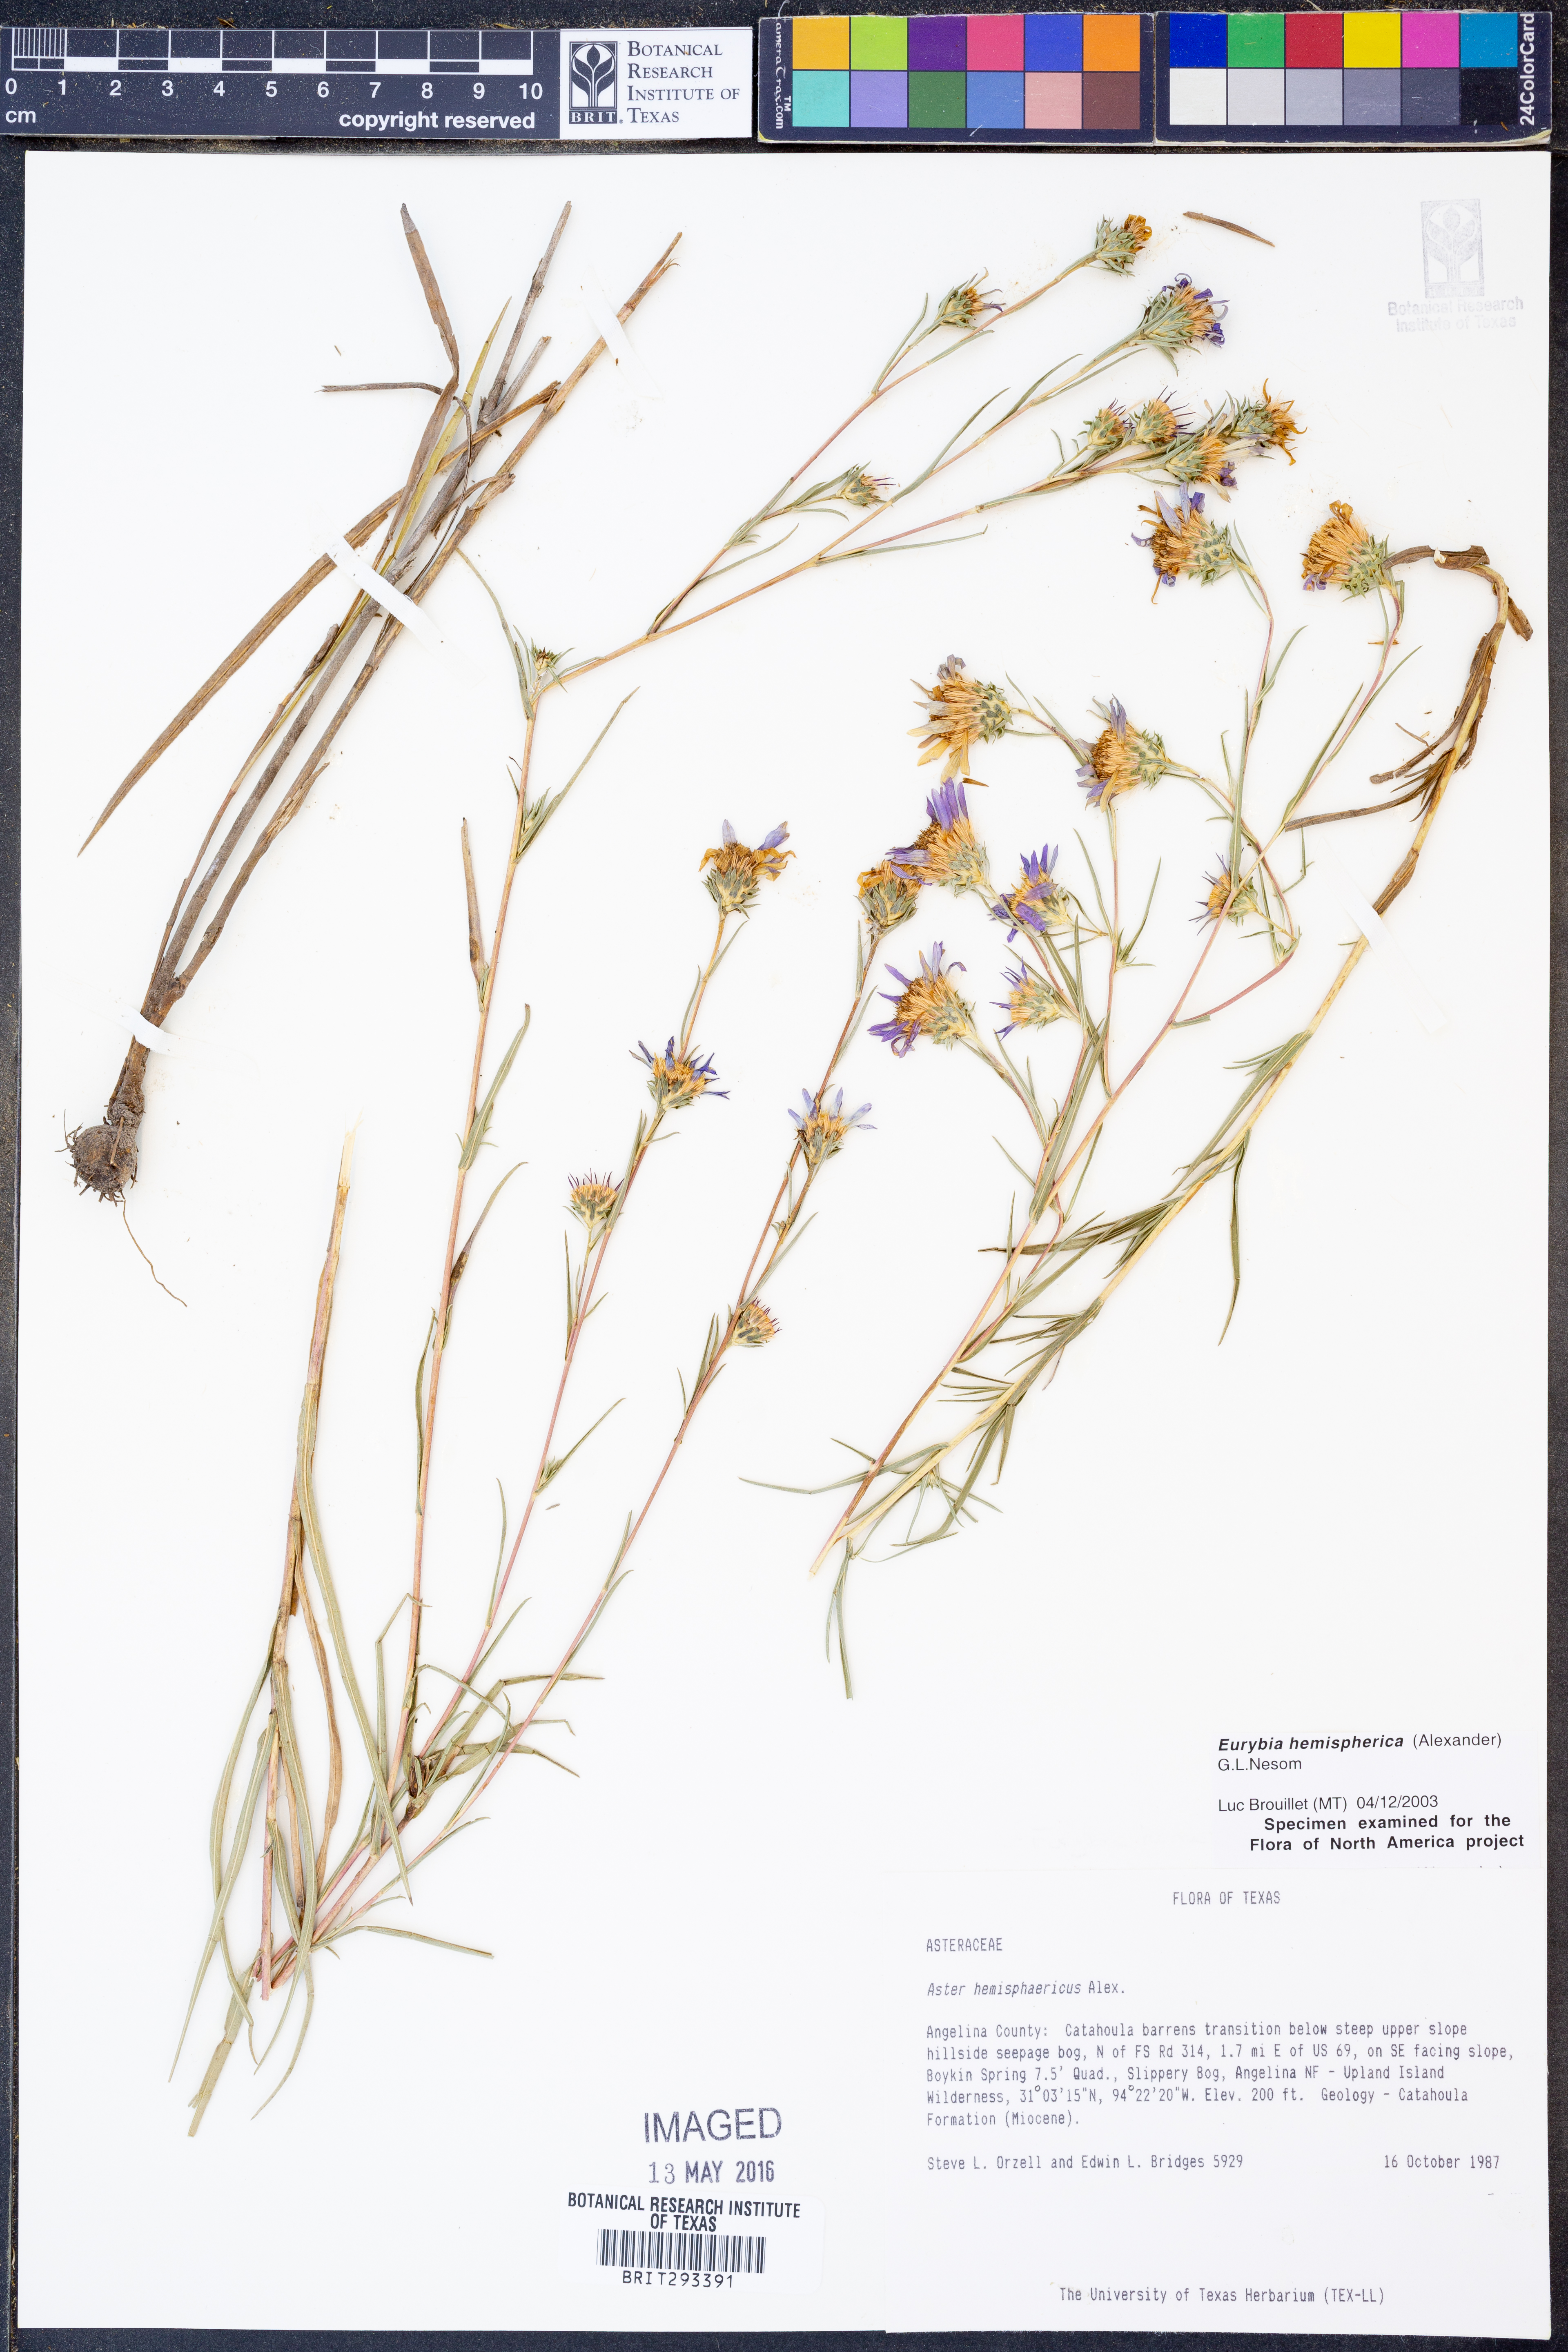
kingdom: Plantae
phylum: Tracheophyta
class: Magnoliopsida
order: Asterales
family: Asteraceae
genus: Eurybia
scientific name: Eurybia hemispherica
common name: Showy aster
